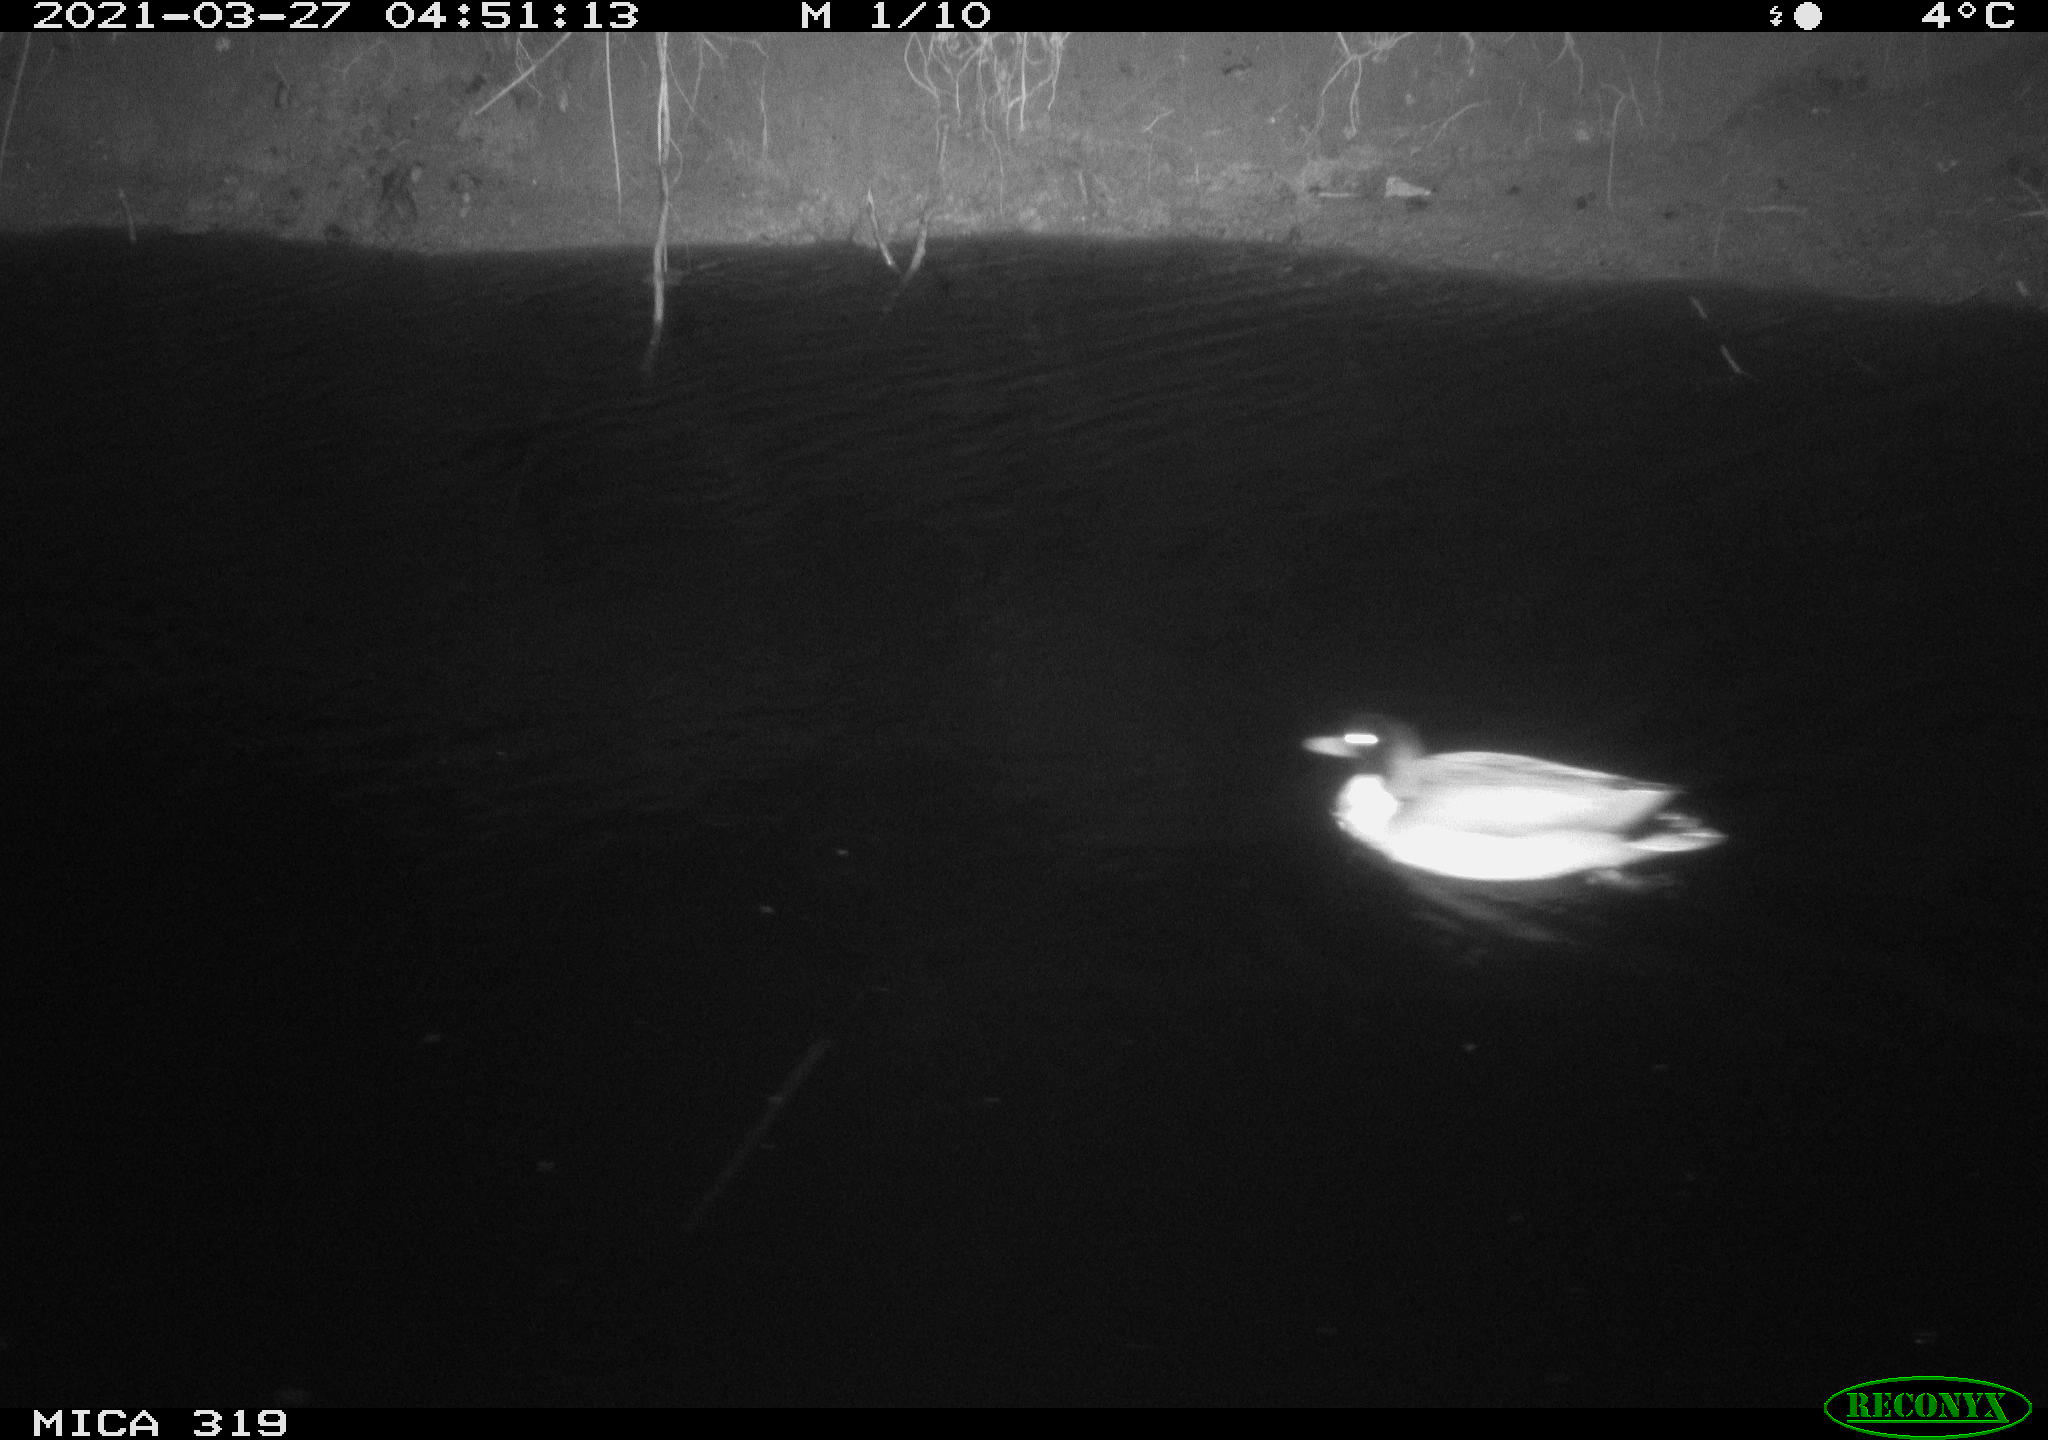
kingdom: Animalia
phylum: Chordata
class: Aves
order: Anseriformes
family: Anatidae
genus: Anas
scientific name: Anas platyrhynchos
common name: Mallard
